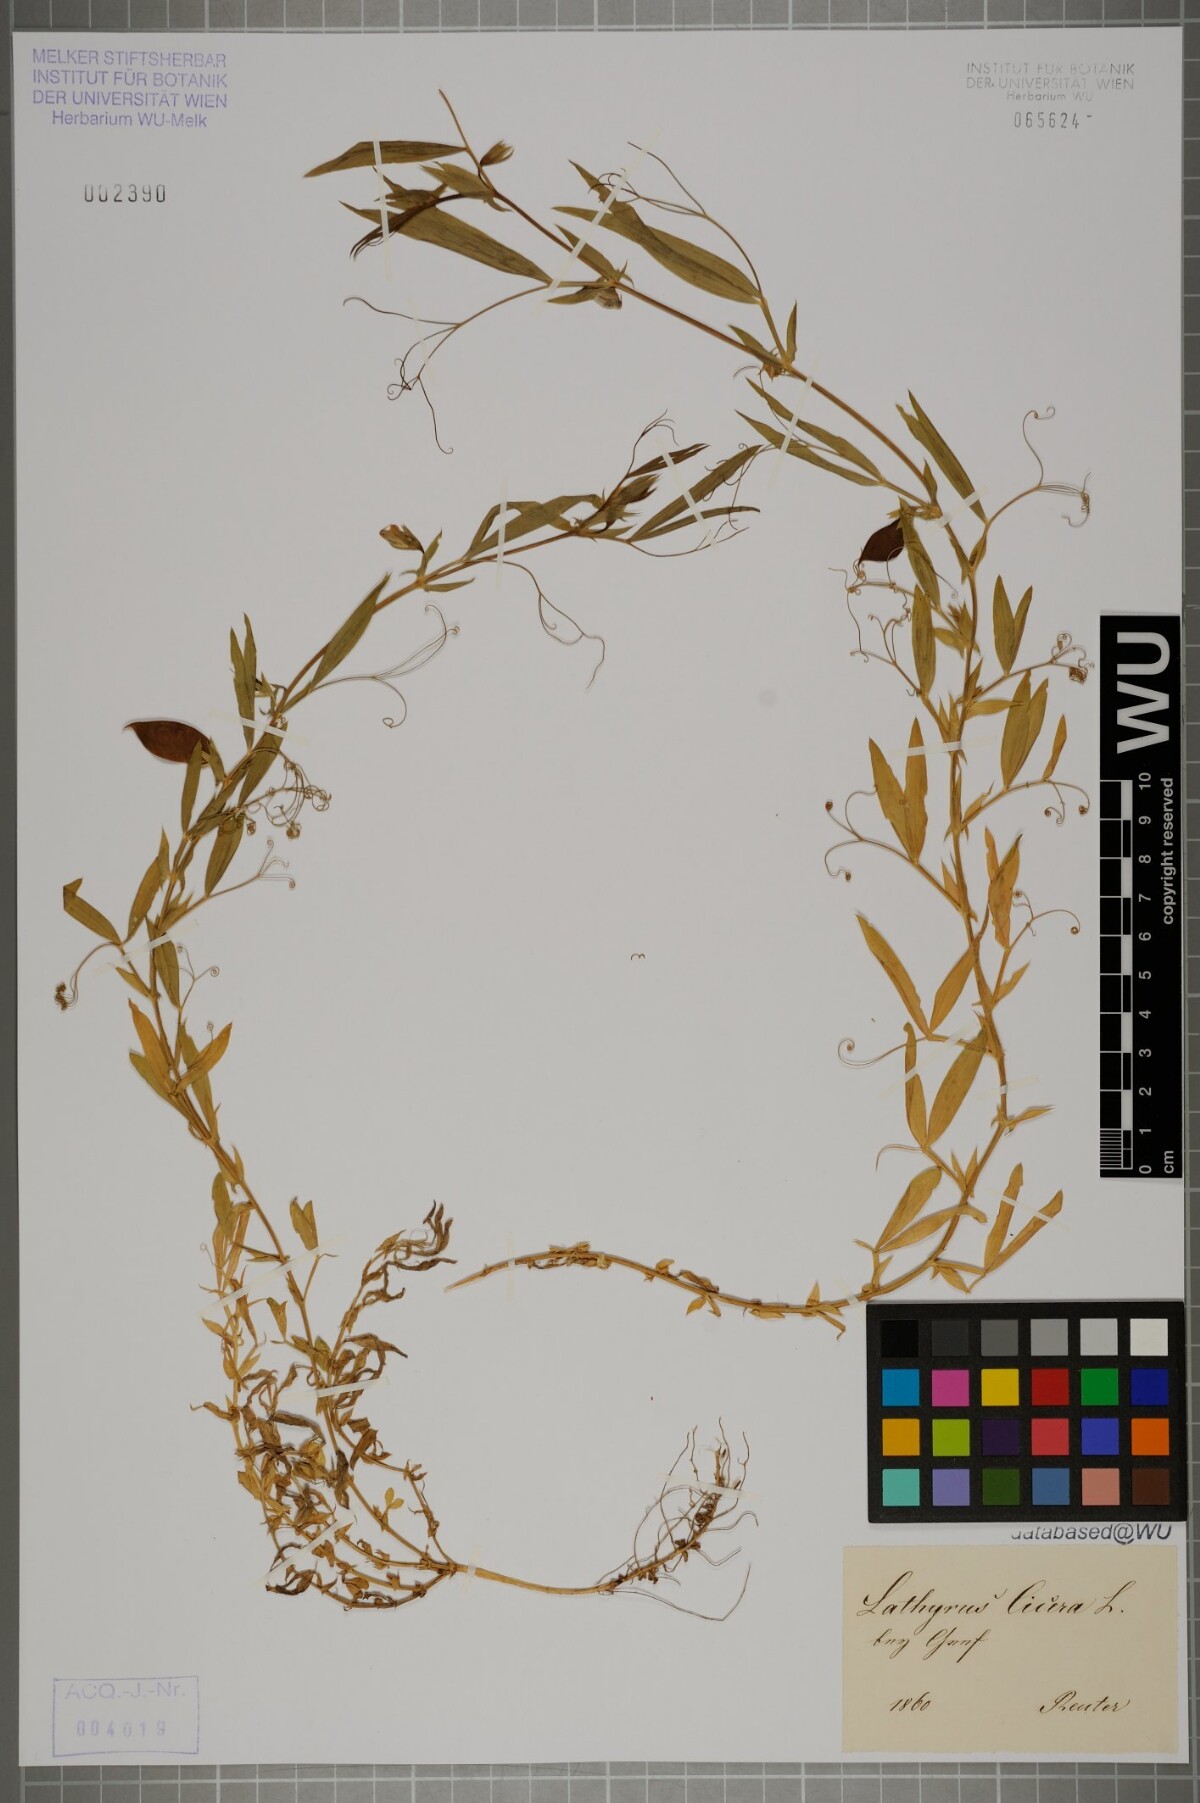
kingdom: Plantae
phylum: Tracheophyta
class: Magnoliopsida
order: Fabales
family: Fabaceae
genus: Lathyrus
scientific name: Lathyrus cicera
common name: Red vetchling
